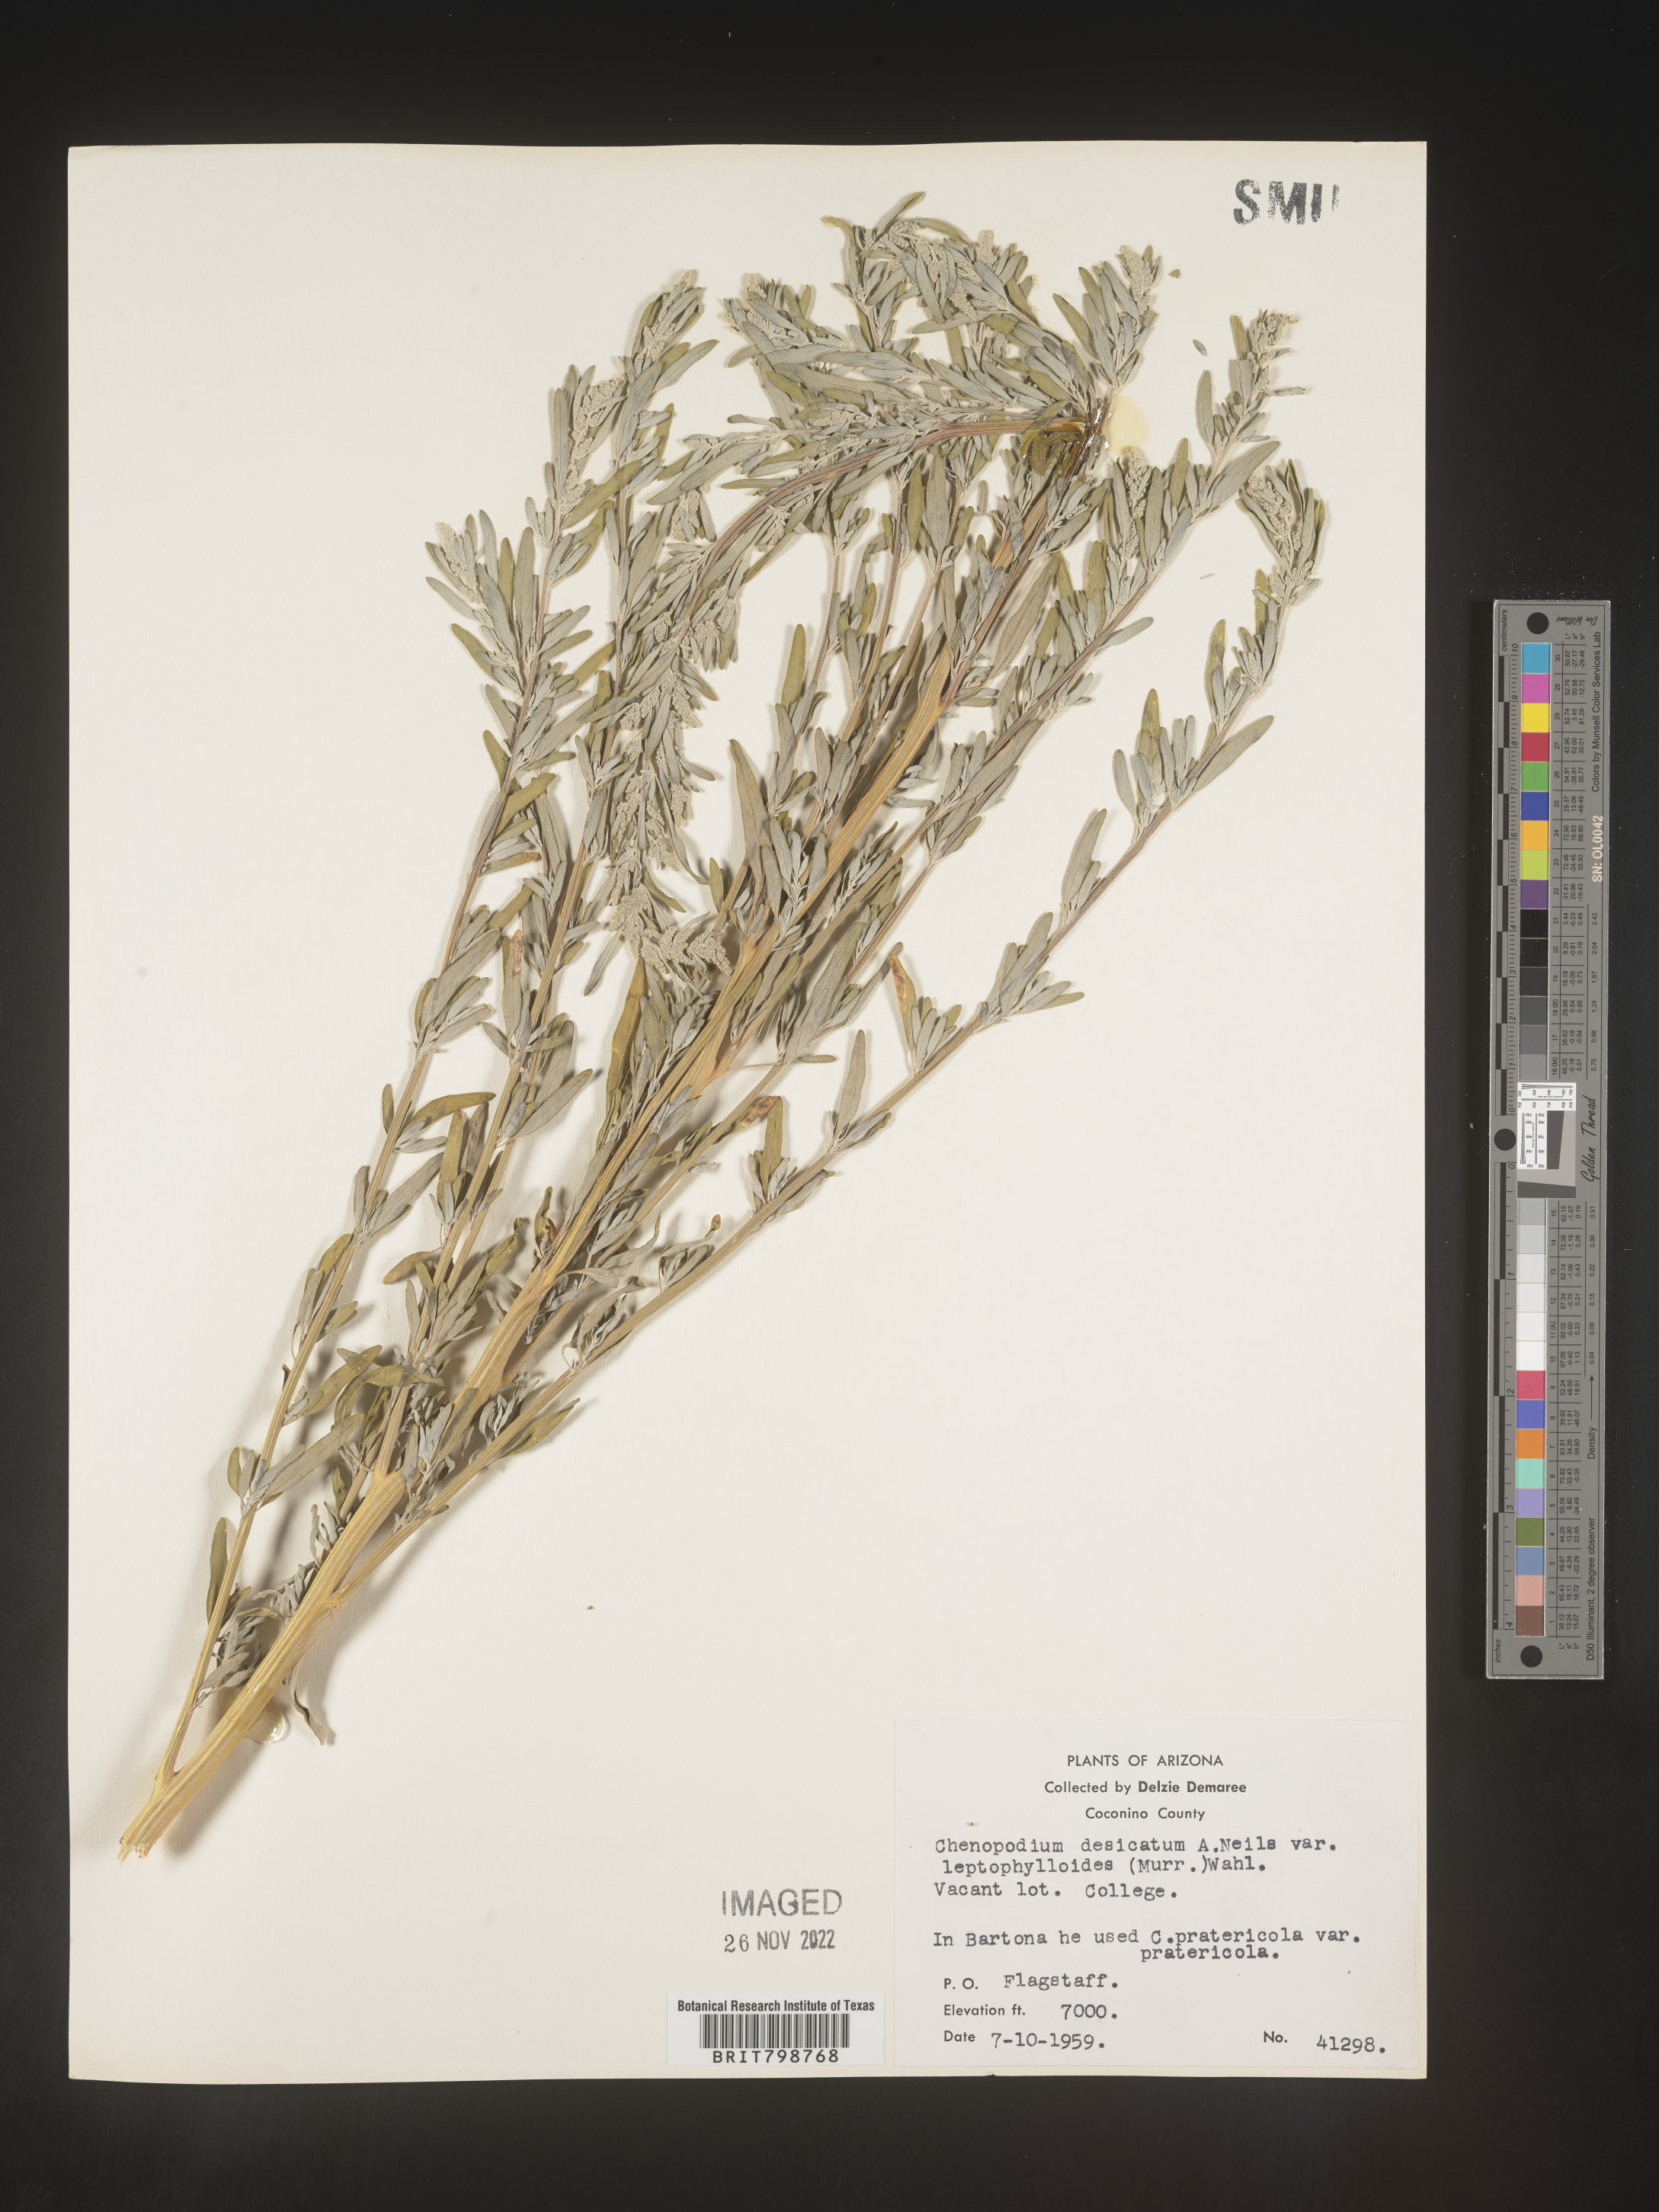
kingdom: Plantae
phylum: Tracheophyta
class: Magnoliopsida
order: Caryophyllales
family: Amaranthaceae
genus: Chenopodium
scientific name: Chenopodium desiccatum
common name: Slimleaf goosefoot
